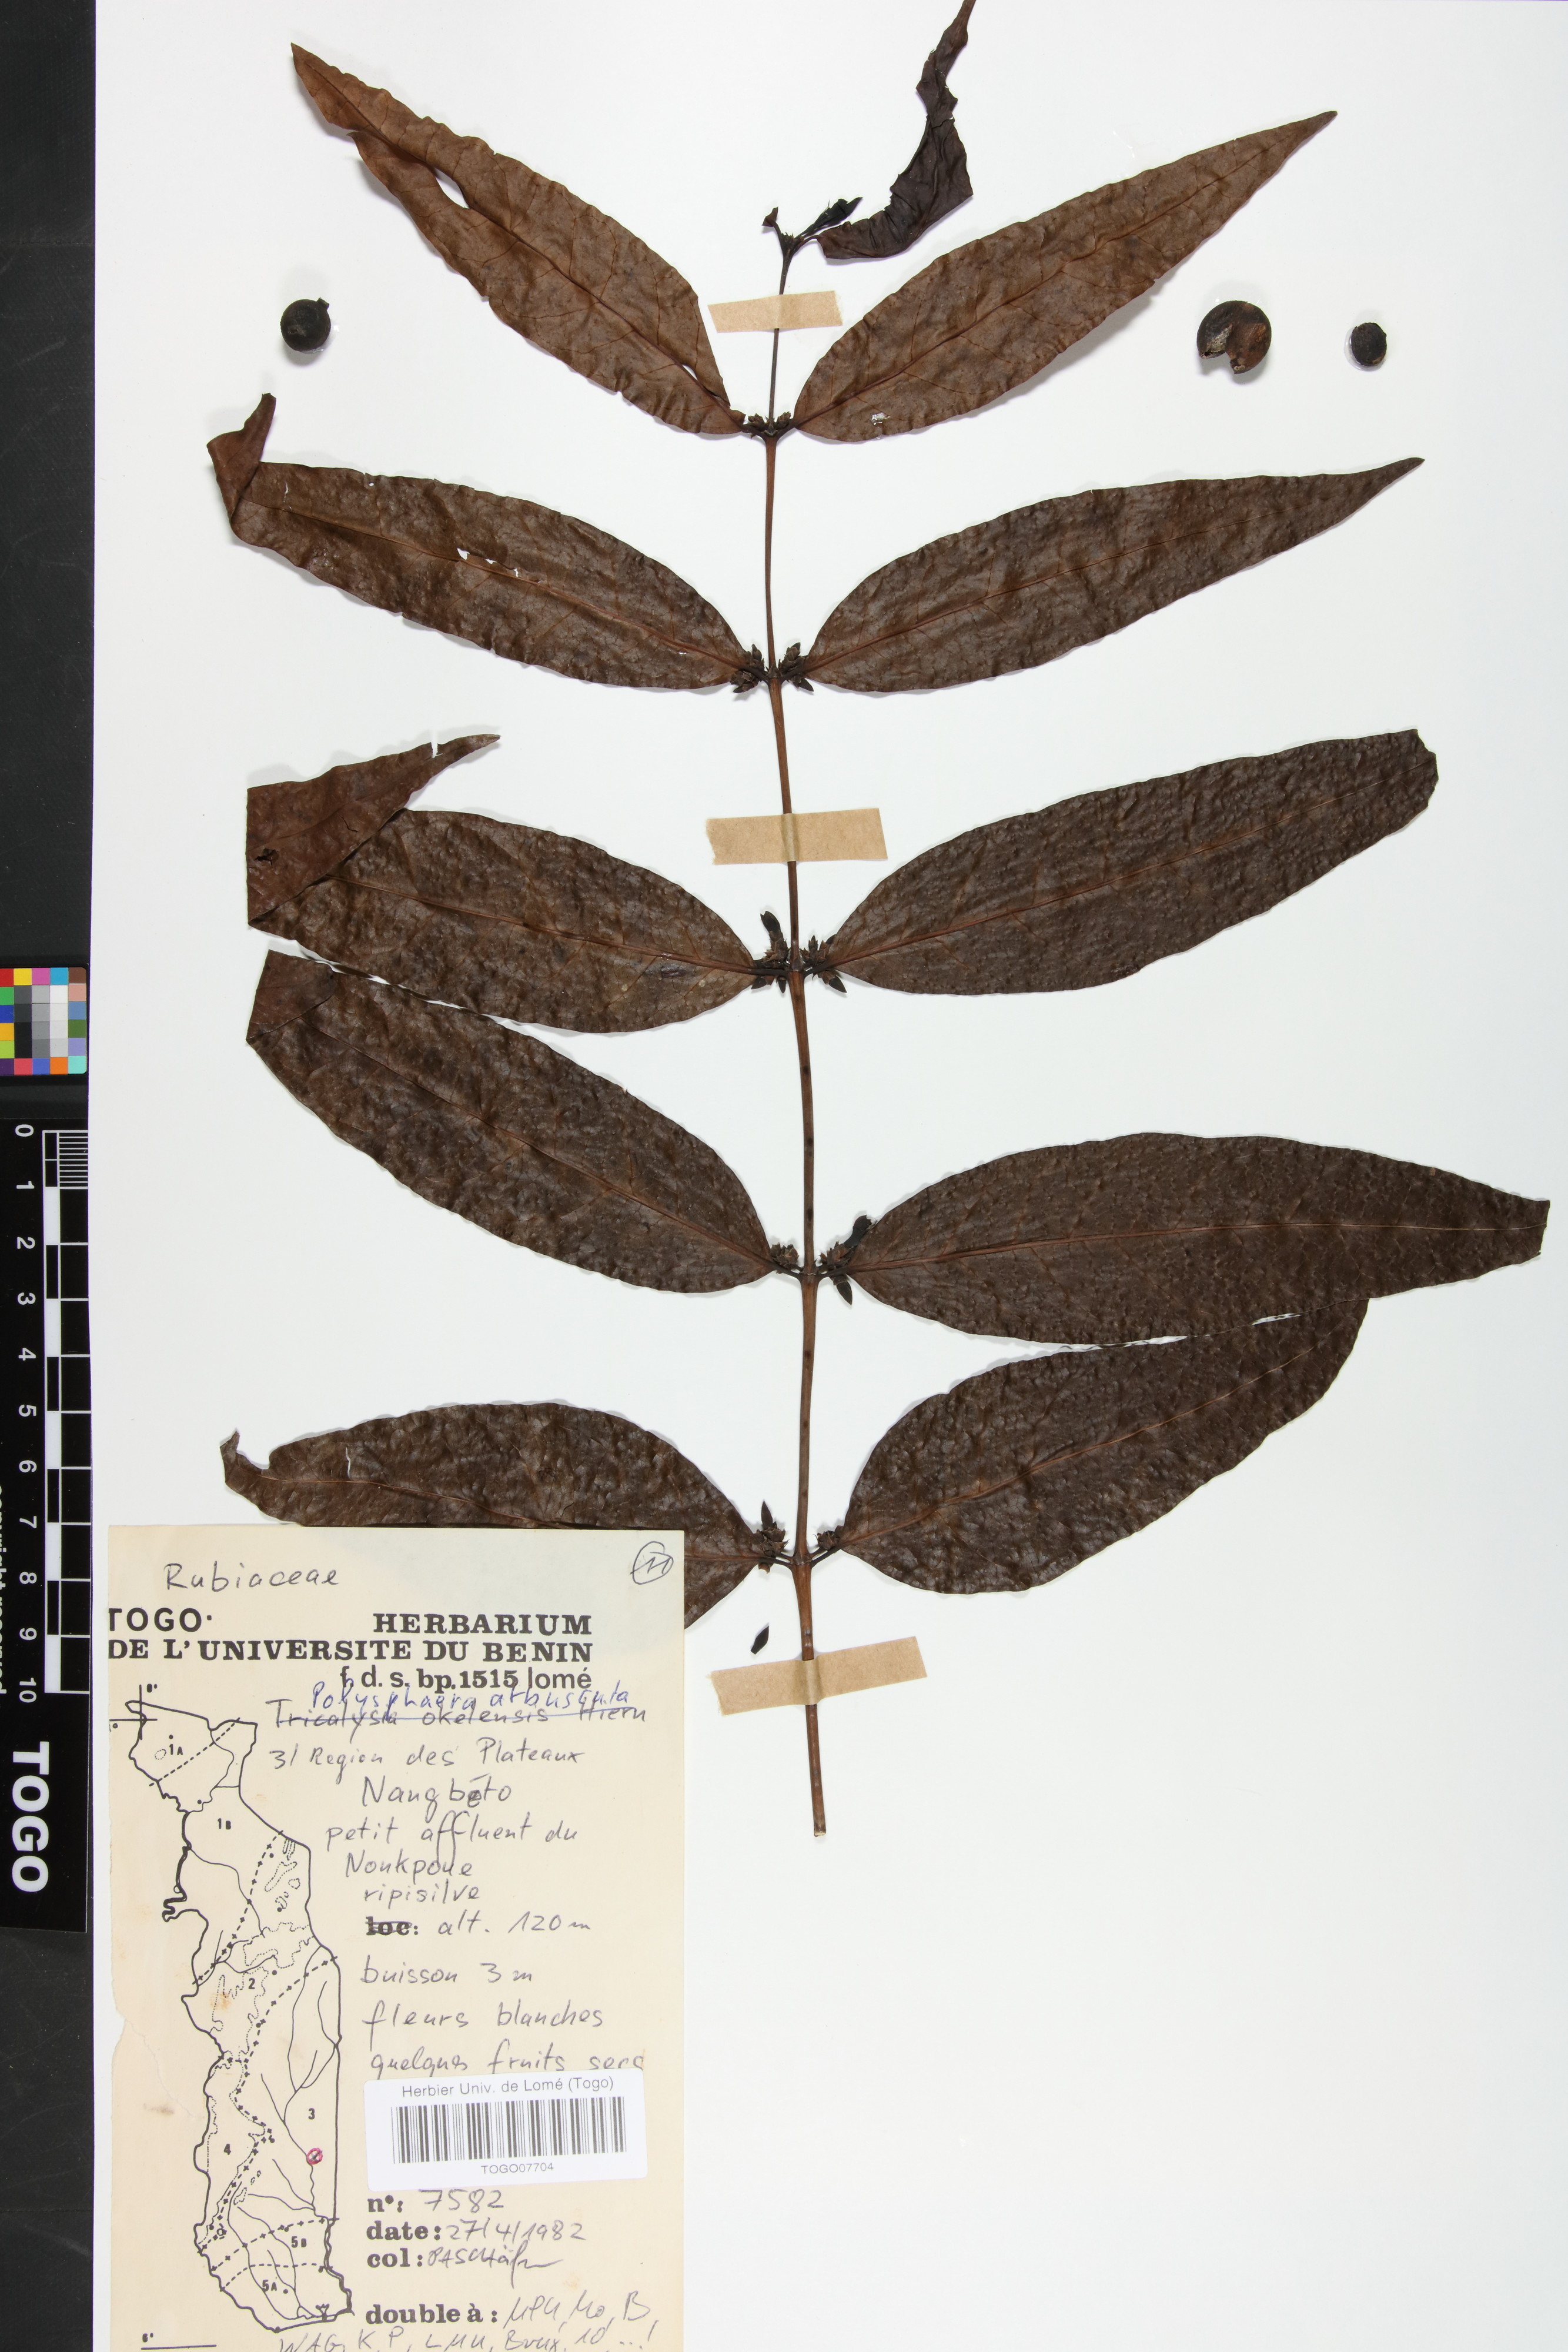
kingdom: Plantae
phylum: Tracheophyta
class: Magnoliopsida
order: Gentianales
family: Rubiaceae
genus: Polysphaeria
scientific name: Polysphaeria arbuscula
